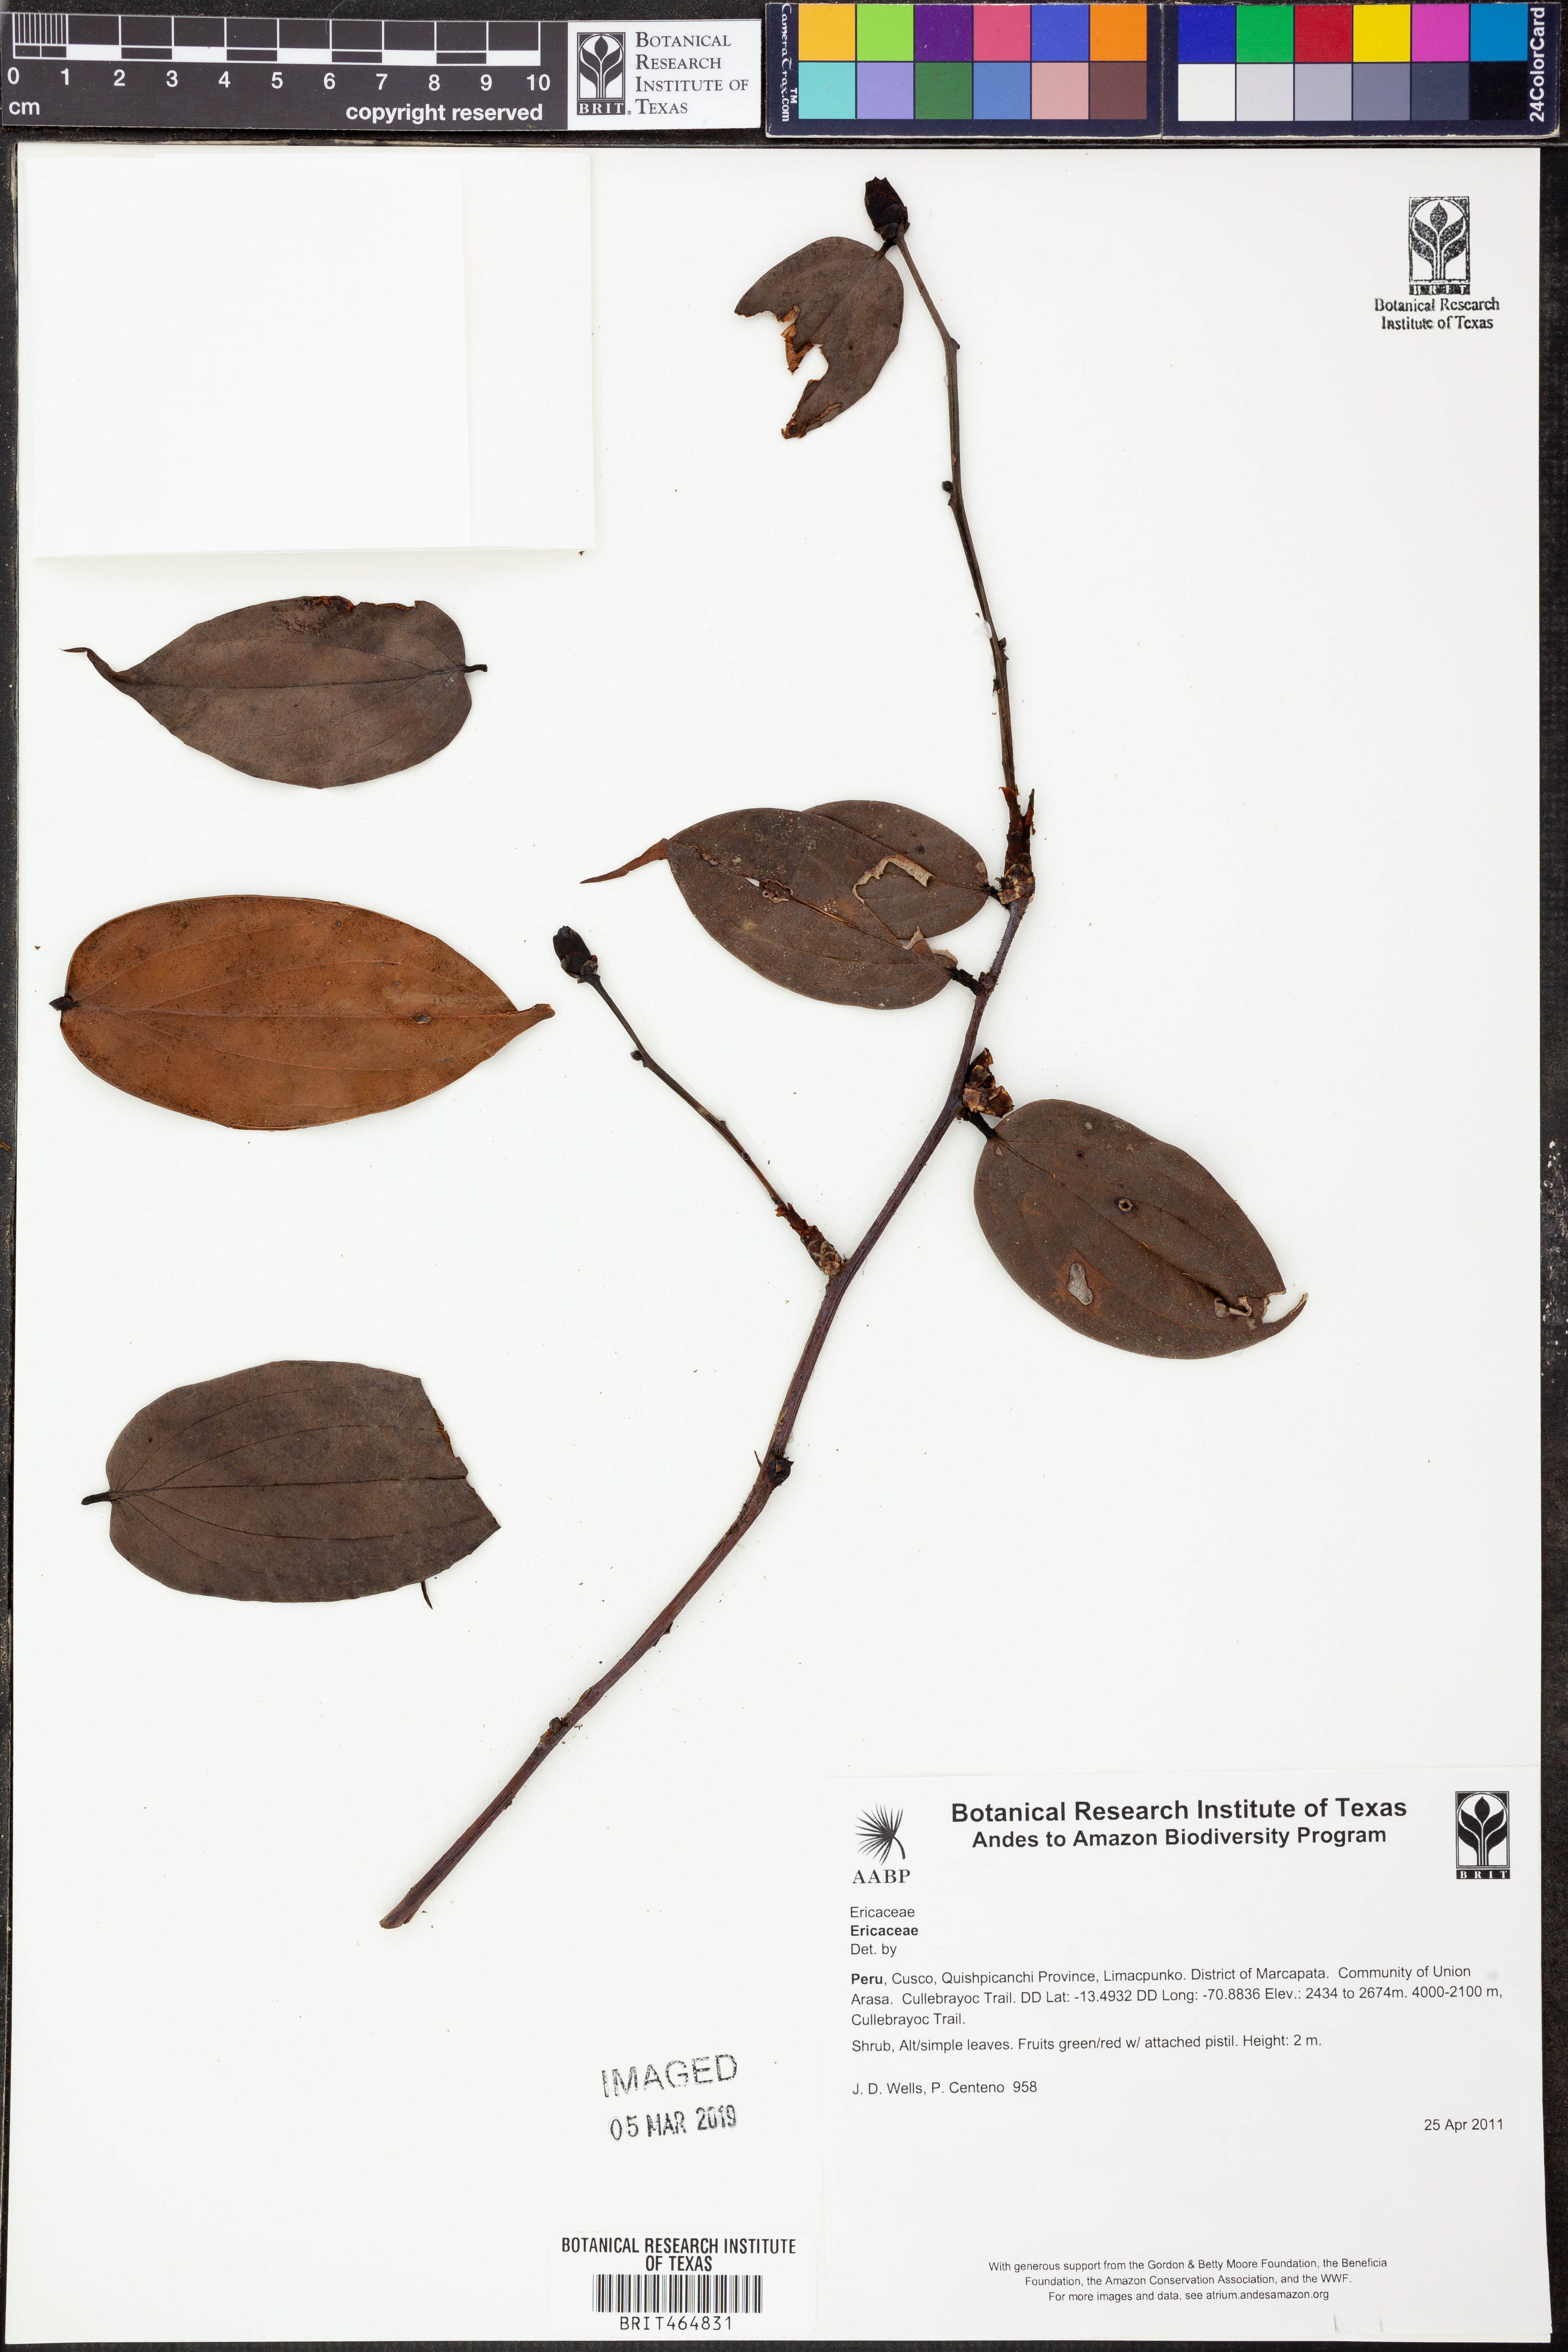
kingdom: Plantae
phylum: Tracheophyta
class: Magnoliopsida
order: Ericales
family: Ericaceae
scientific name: Ericaceae
